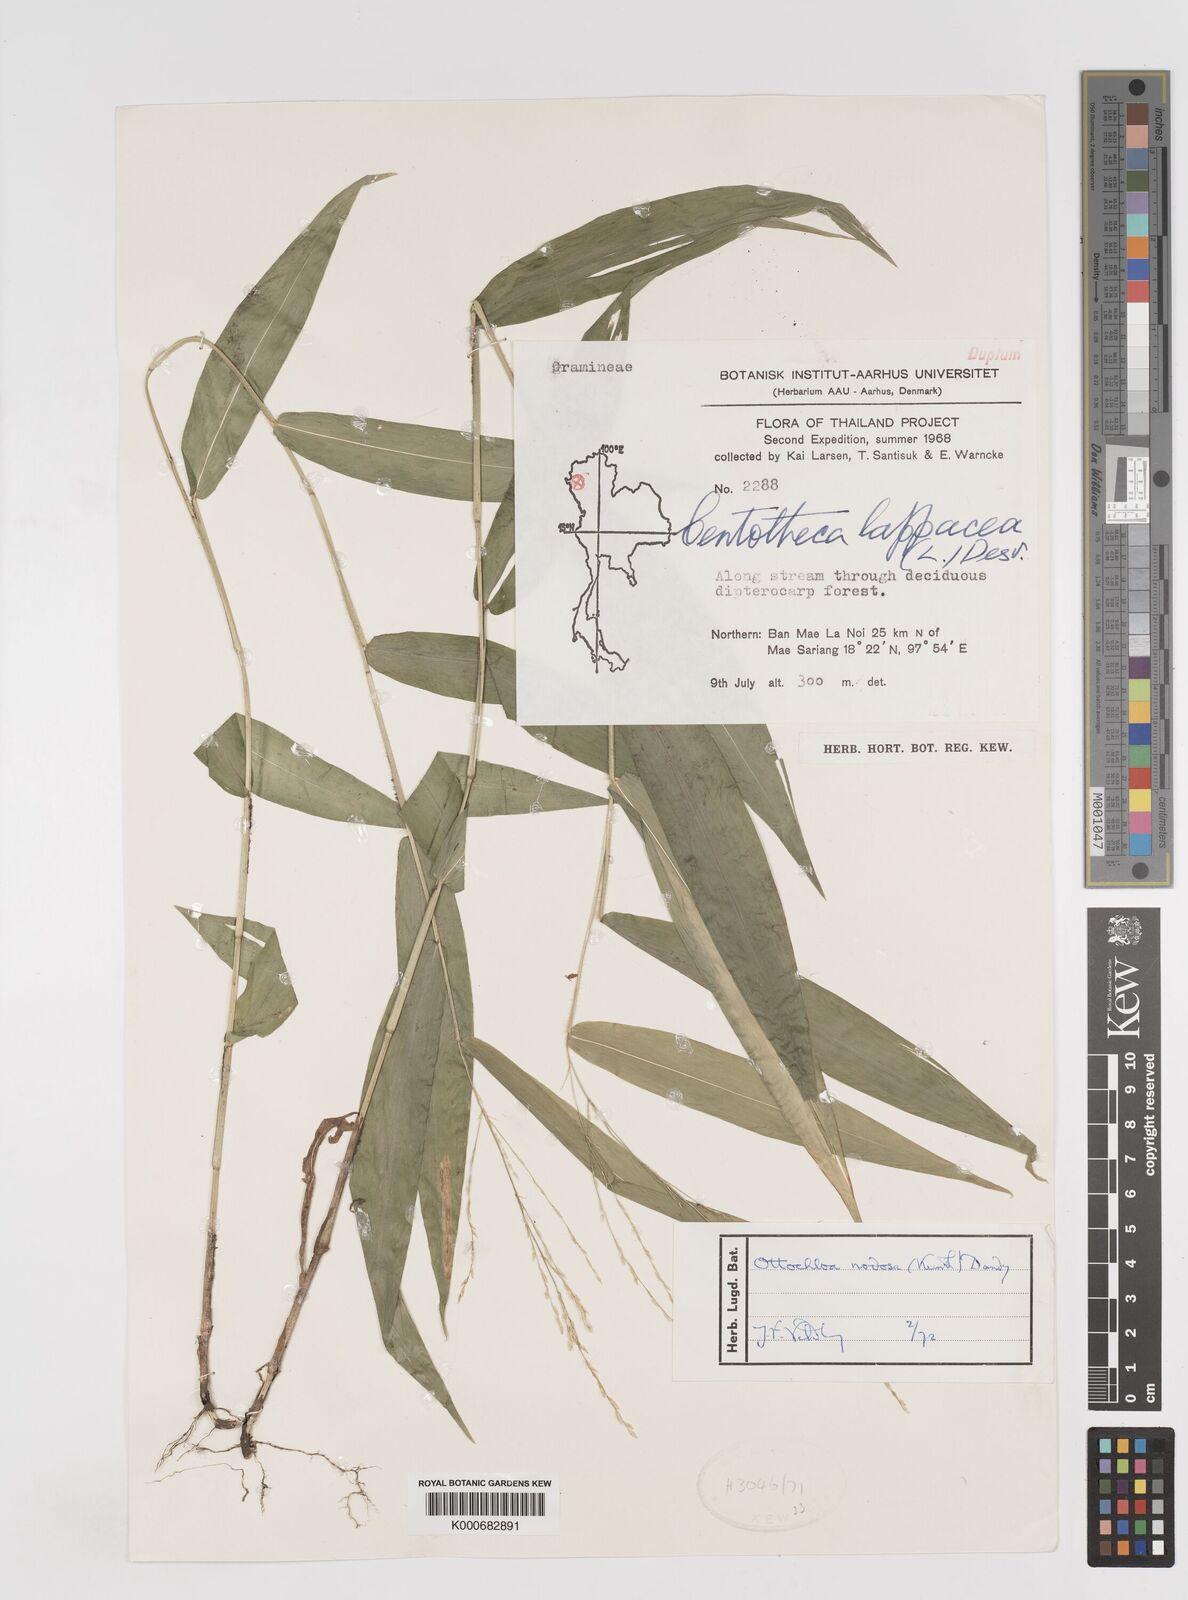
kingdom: Plantae
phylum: Tracheophyta
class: Liliopsida
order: Poales
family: Poaceae
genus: Ottochloa
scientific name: Ottochloa nodosa
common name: Slender-panic grass
